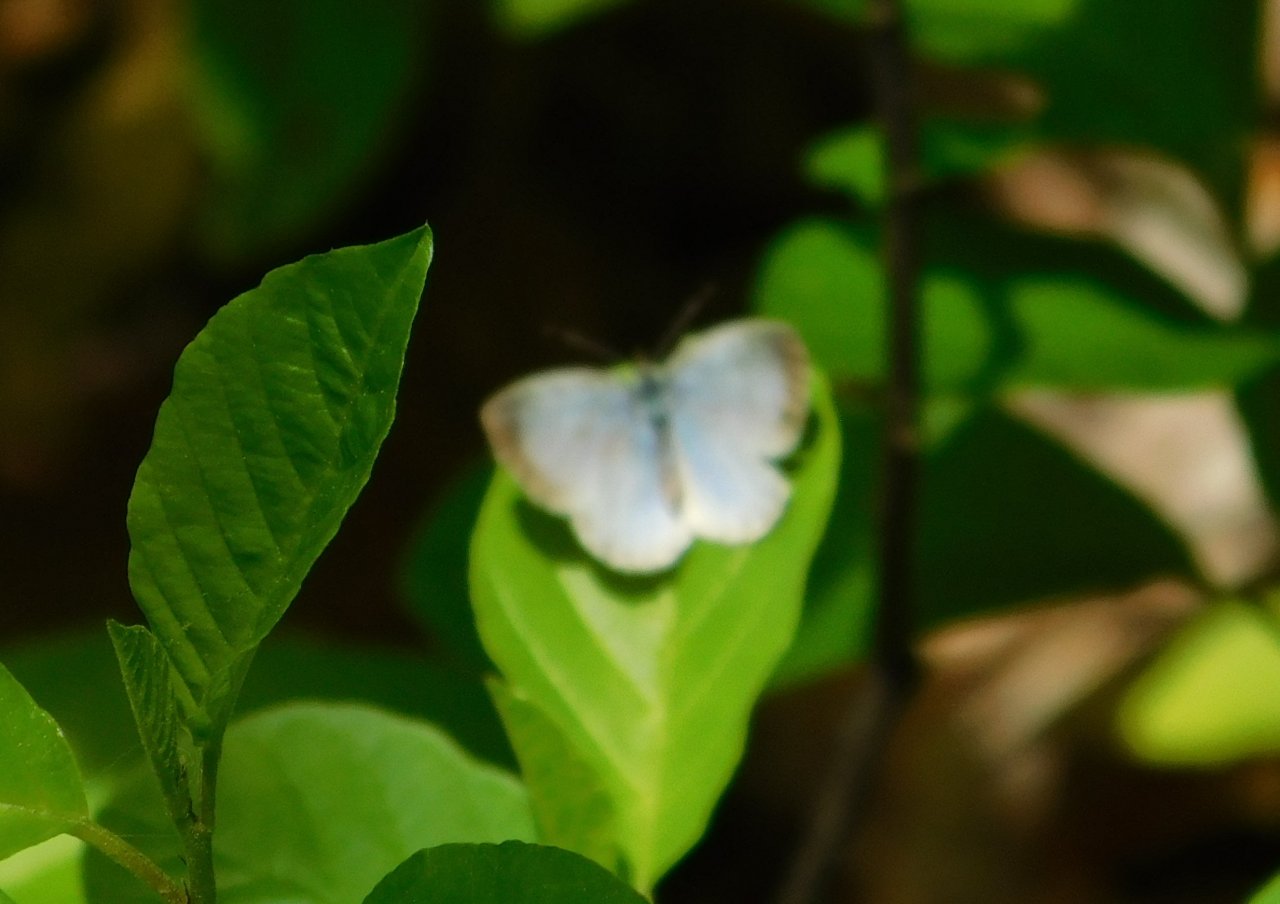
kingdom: Animalia
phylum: Arthropoda
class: Insecta
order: Lepidoptera
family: Lycaenidae
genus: Celastrina
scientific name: Celastrina lucia
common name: Northern Spring Azure
